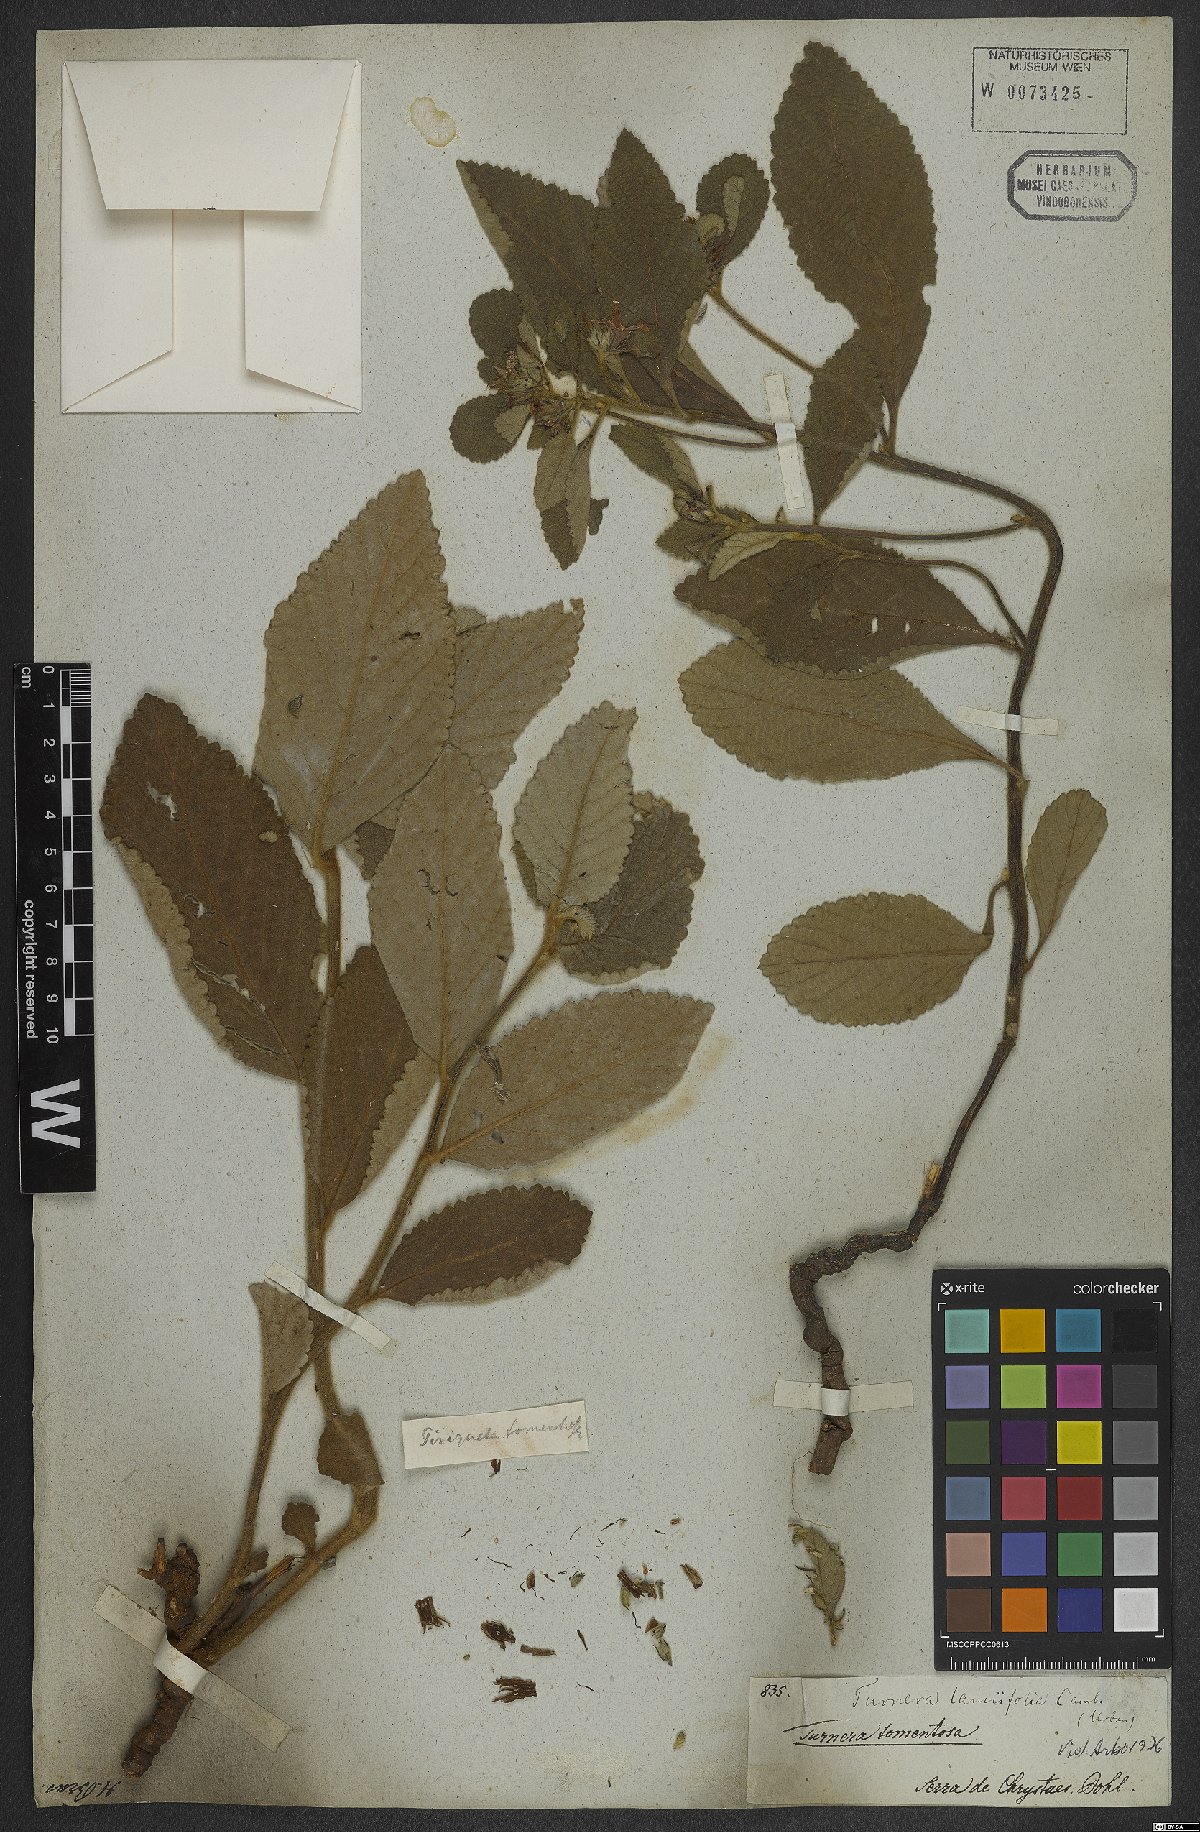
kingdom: Plantae
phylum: Tracheophyta
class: Magnoliopsida
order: Malpighiales
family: Turneraceae
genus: Turnera
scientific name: Turnera lamiifolia
